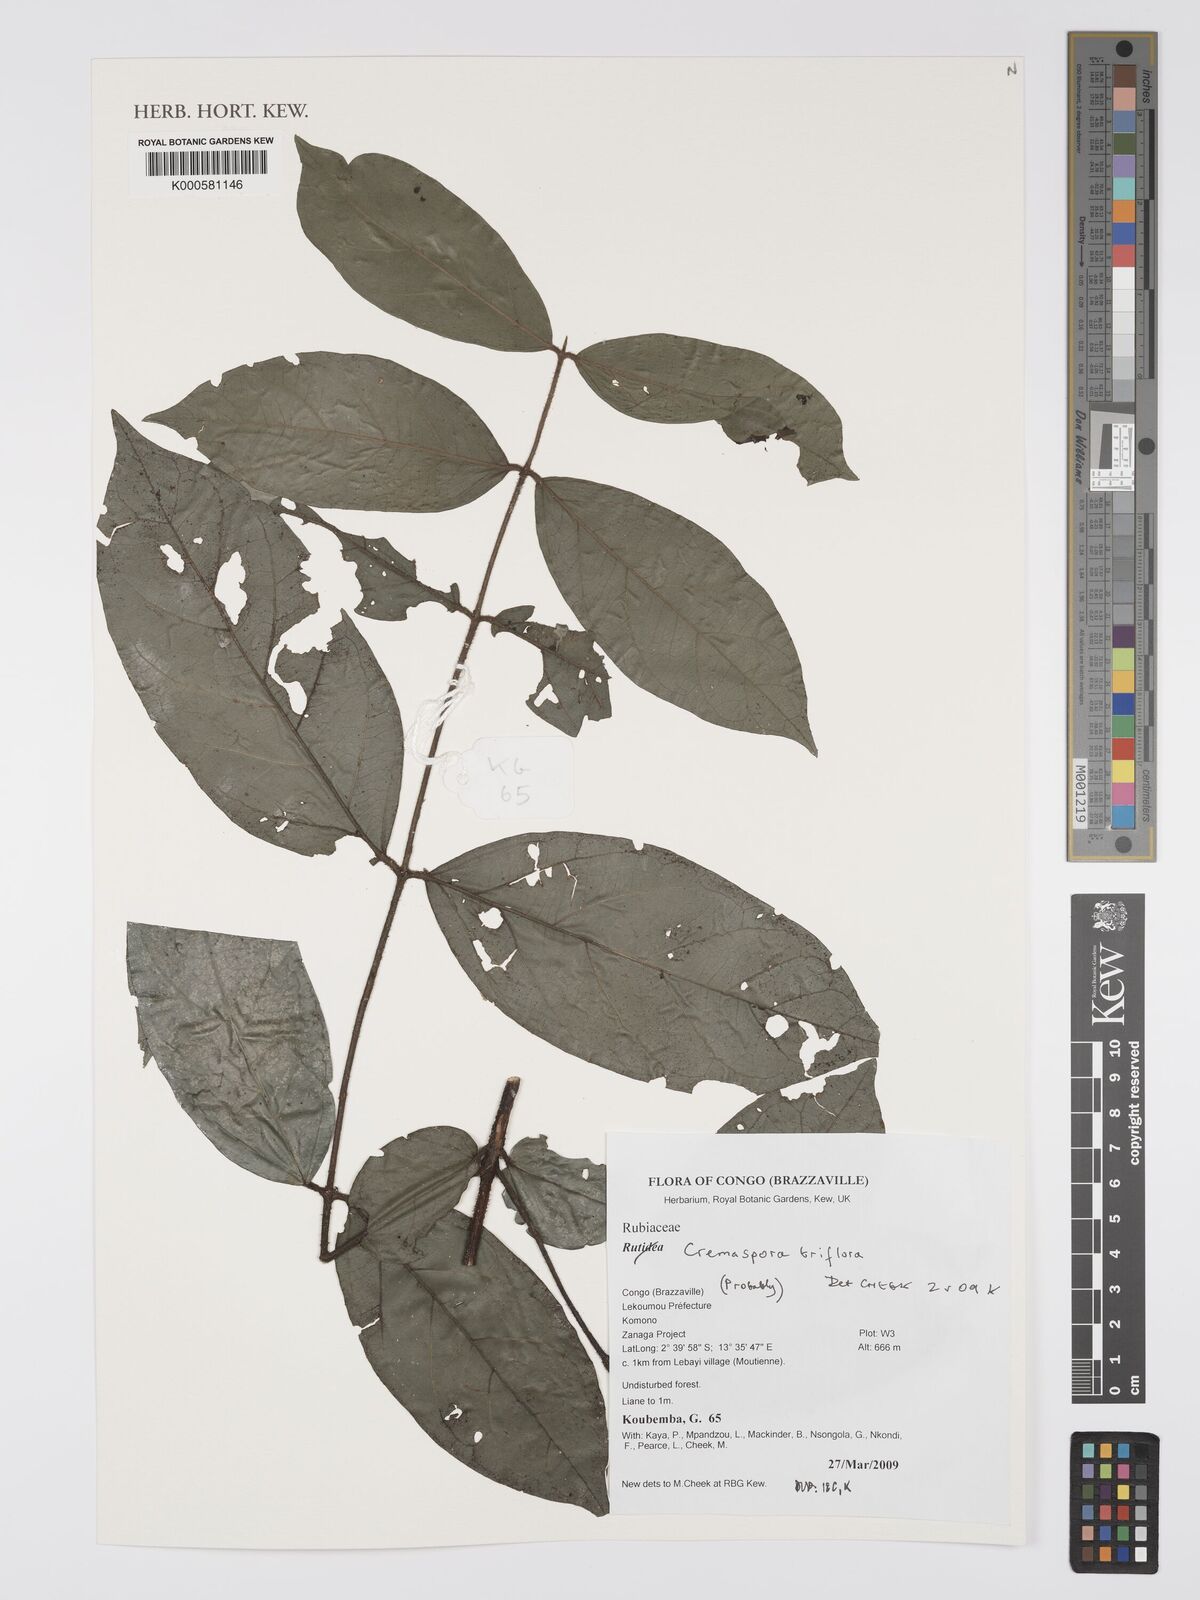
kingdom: Plantae
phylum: Tracheophyta
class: Liliopsida
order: Poales
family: Poaceae
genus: Panicum
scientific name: Panicum coloratum
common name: Kleingrass
